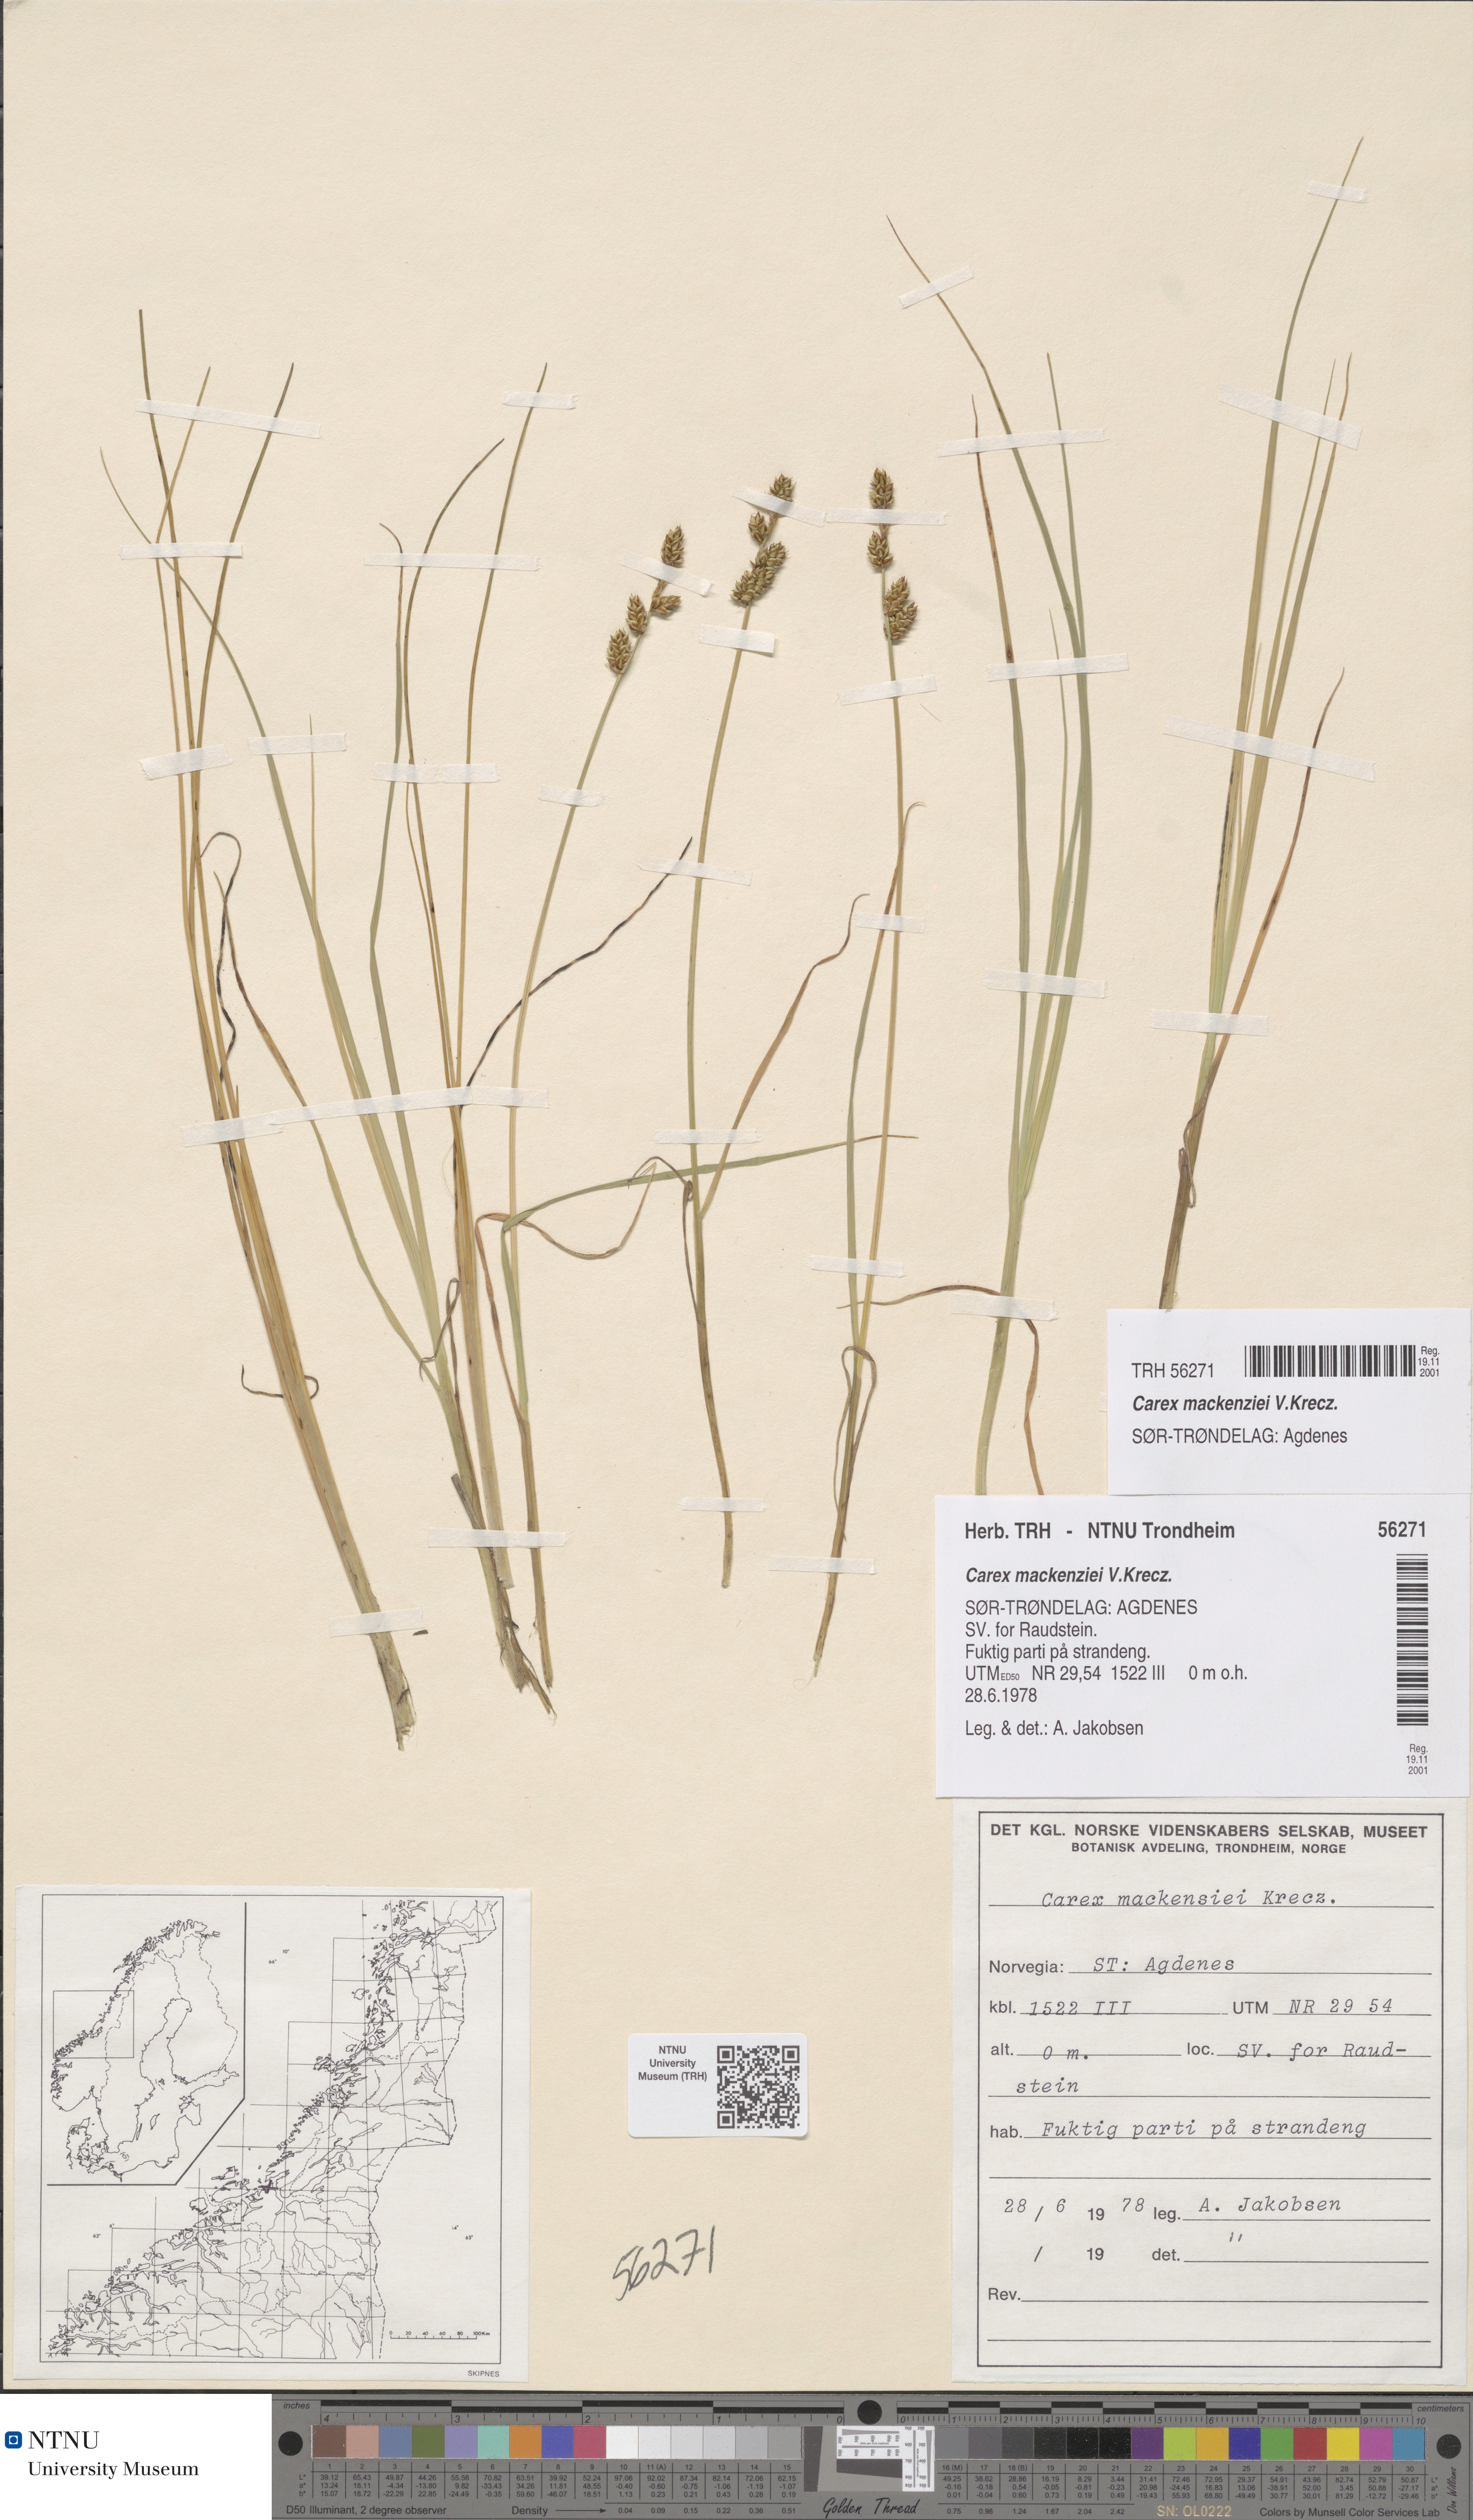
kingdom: Plantae
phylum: Tracheophyta
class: Liliopsida
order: Poales
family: Cyperaceae
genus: Carex
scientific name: Carex mackenziei
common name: Mackenzie's sedge
